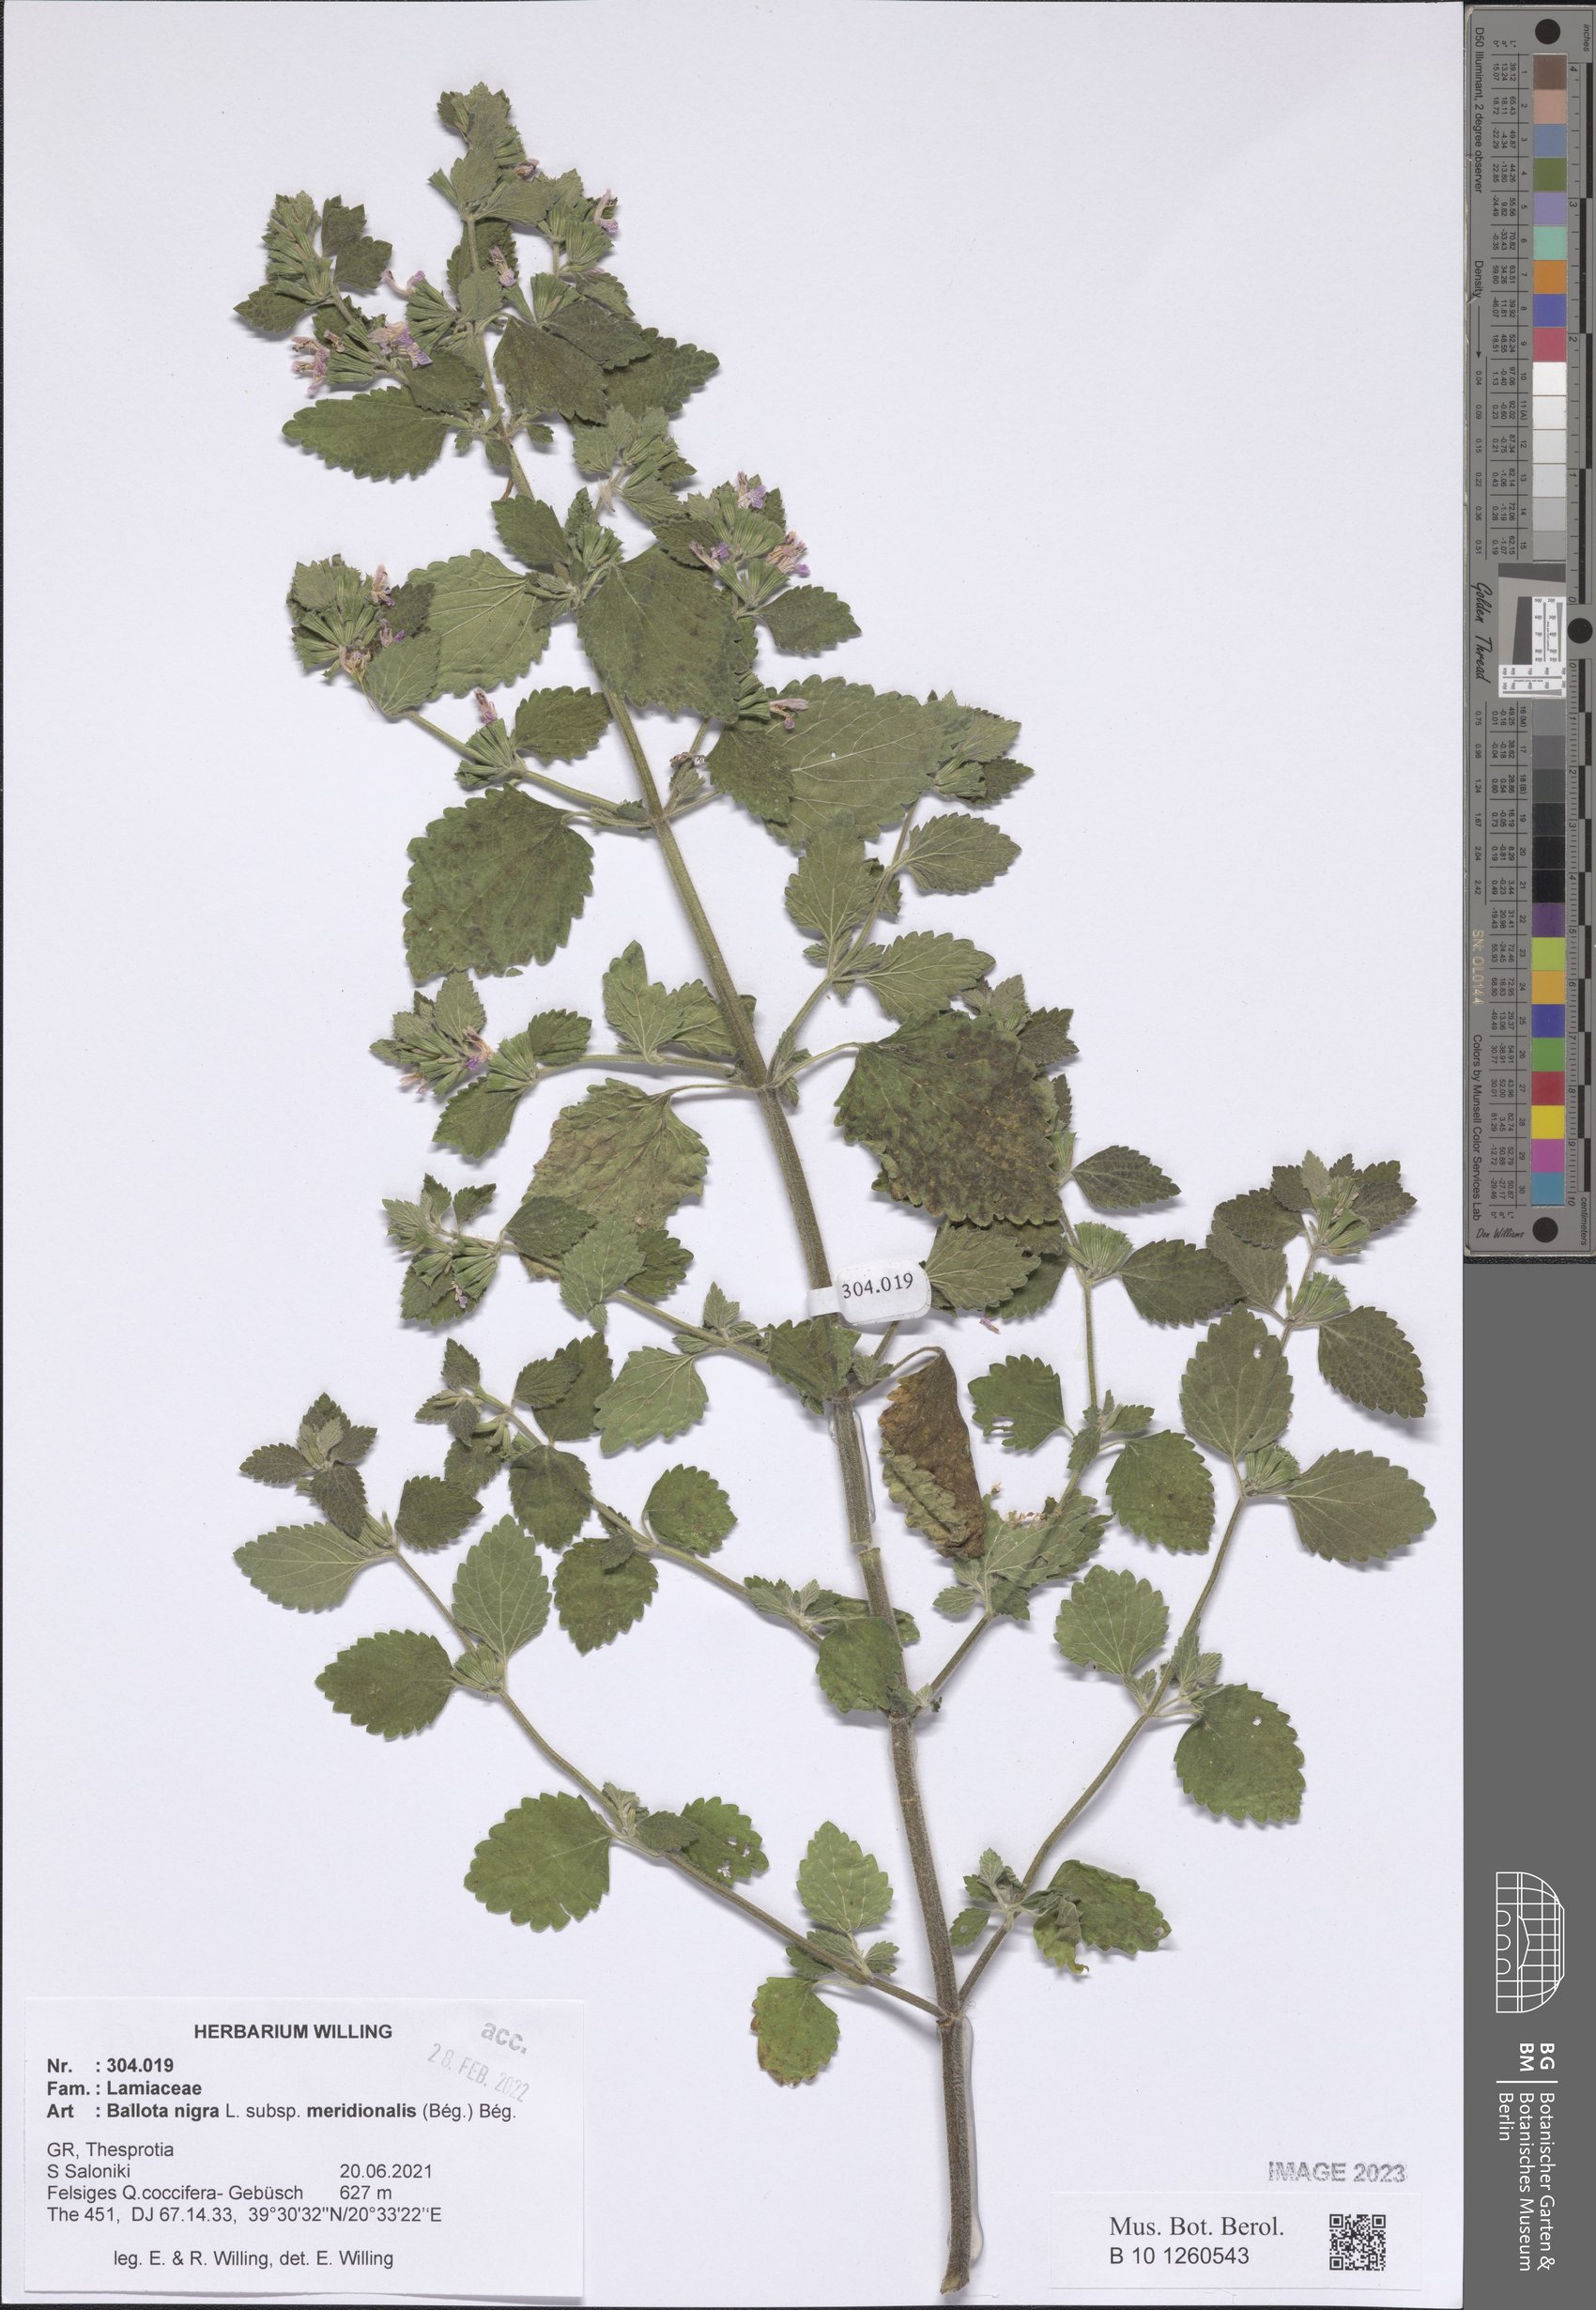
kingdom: Plantae
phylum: Tracheophyta
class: Magnoliopsida
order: Lamiales
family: Lamiaceae
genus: Ballota
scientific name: Ballota nigra
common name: Black horehound
